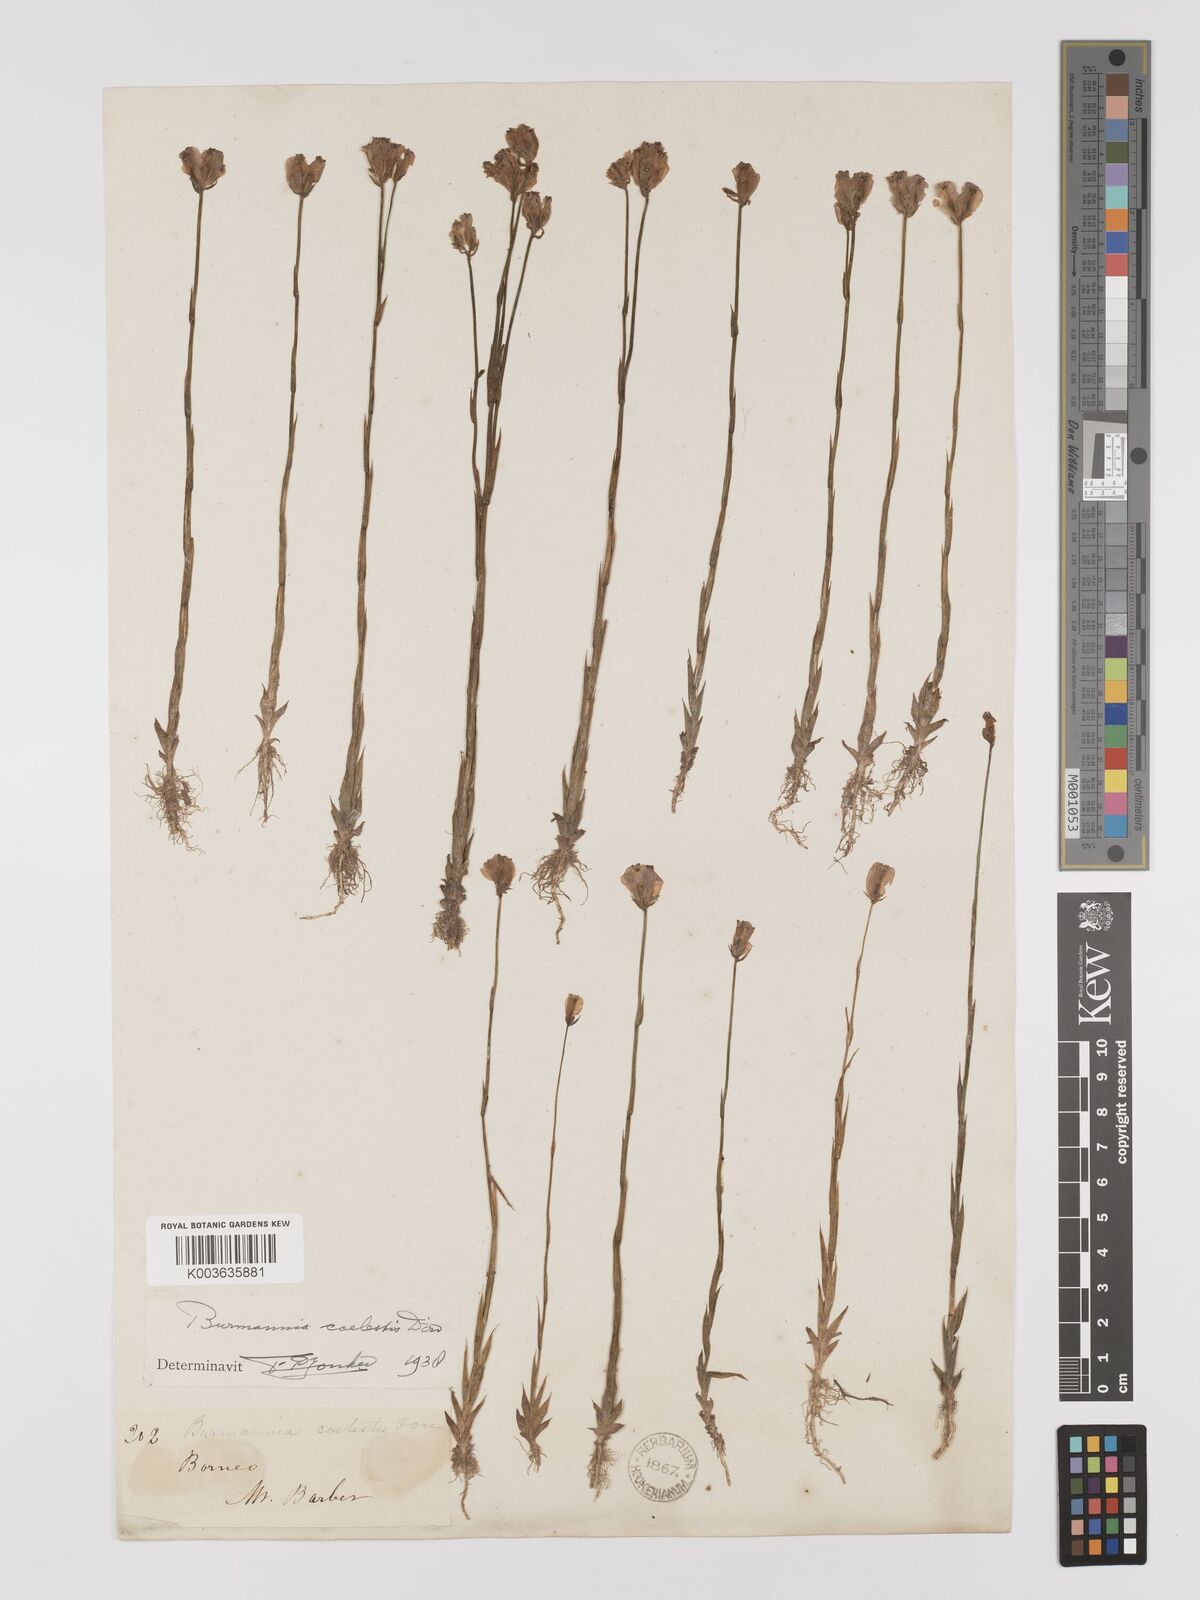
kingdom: Plantae
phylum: Tracheophyta
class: Liliopsida
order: Dioscoreales
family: Burmanniaceae
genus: Burmannia
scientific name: Burmannia coelestis
